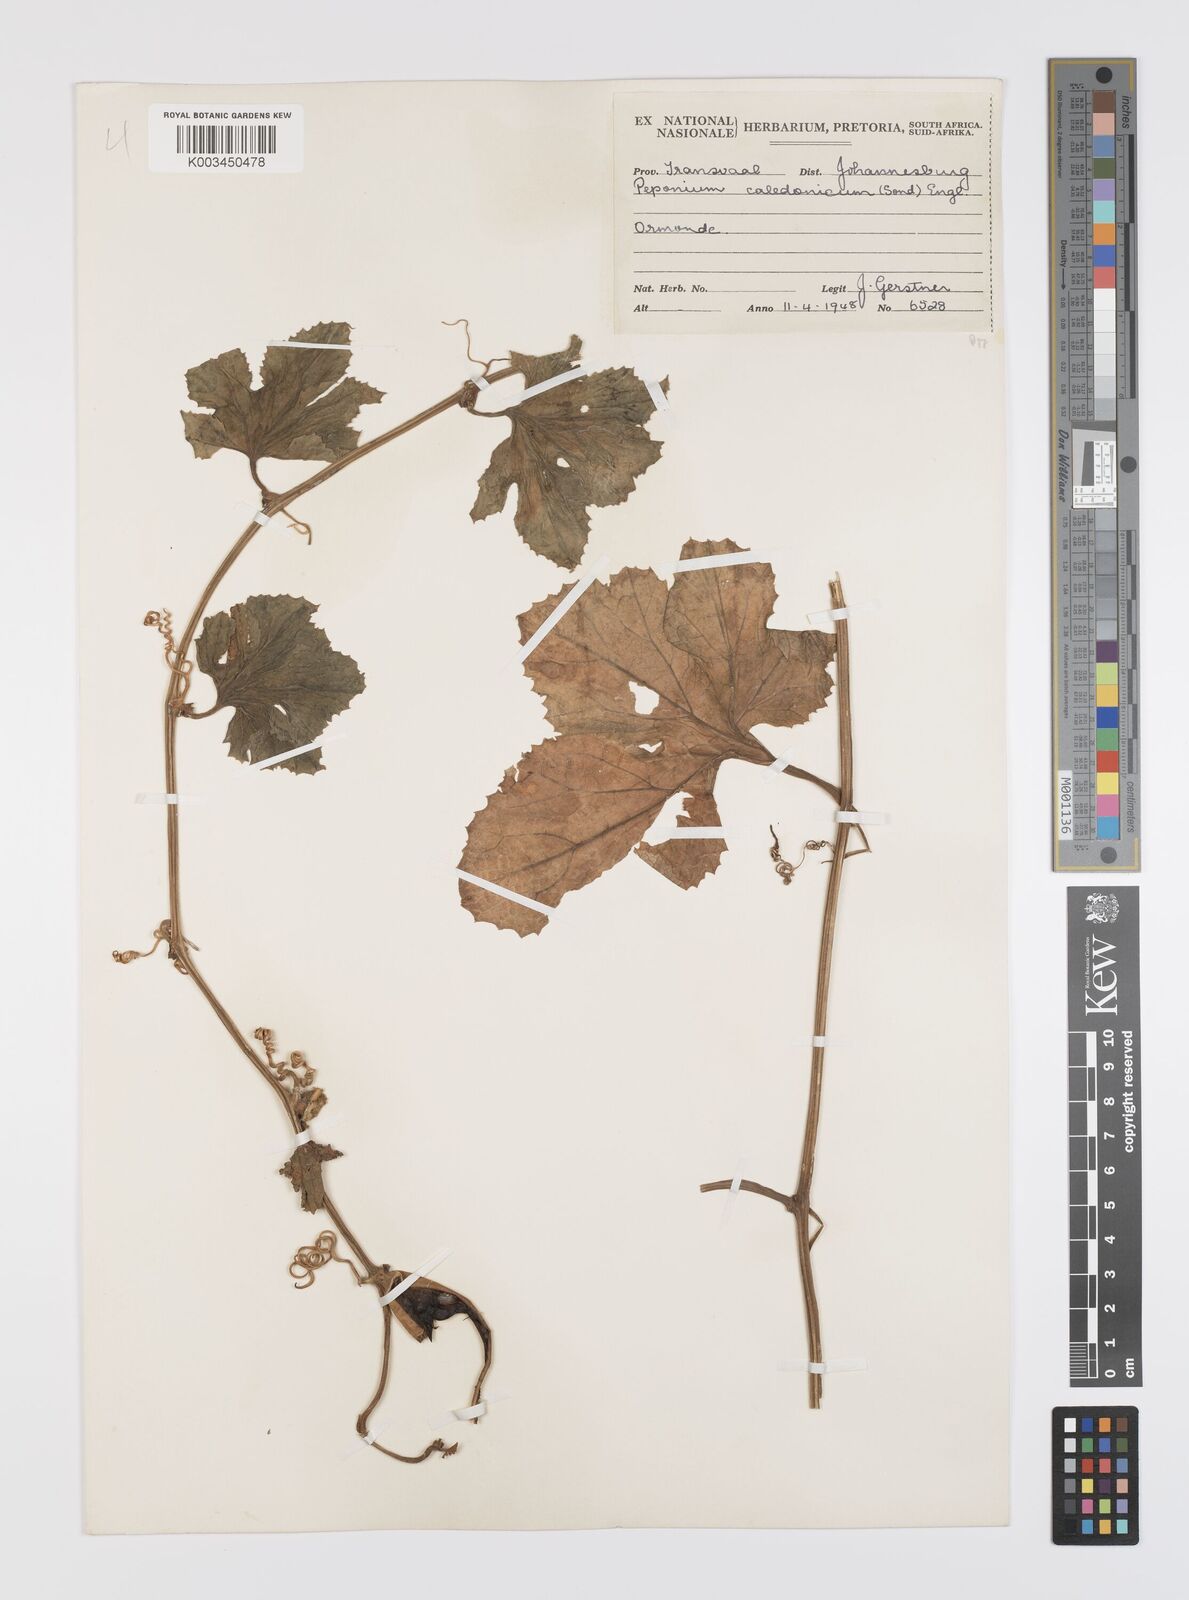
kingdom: Plantae
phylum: Tracheophyta
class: Magnoliopsida
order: Cucurbitales
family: Cucurbitaceae
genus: Peponium
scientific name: Peponium caledonicum
